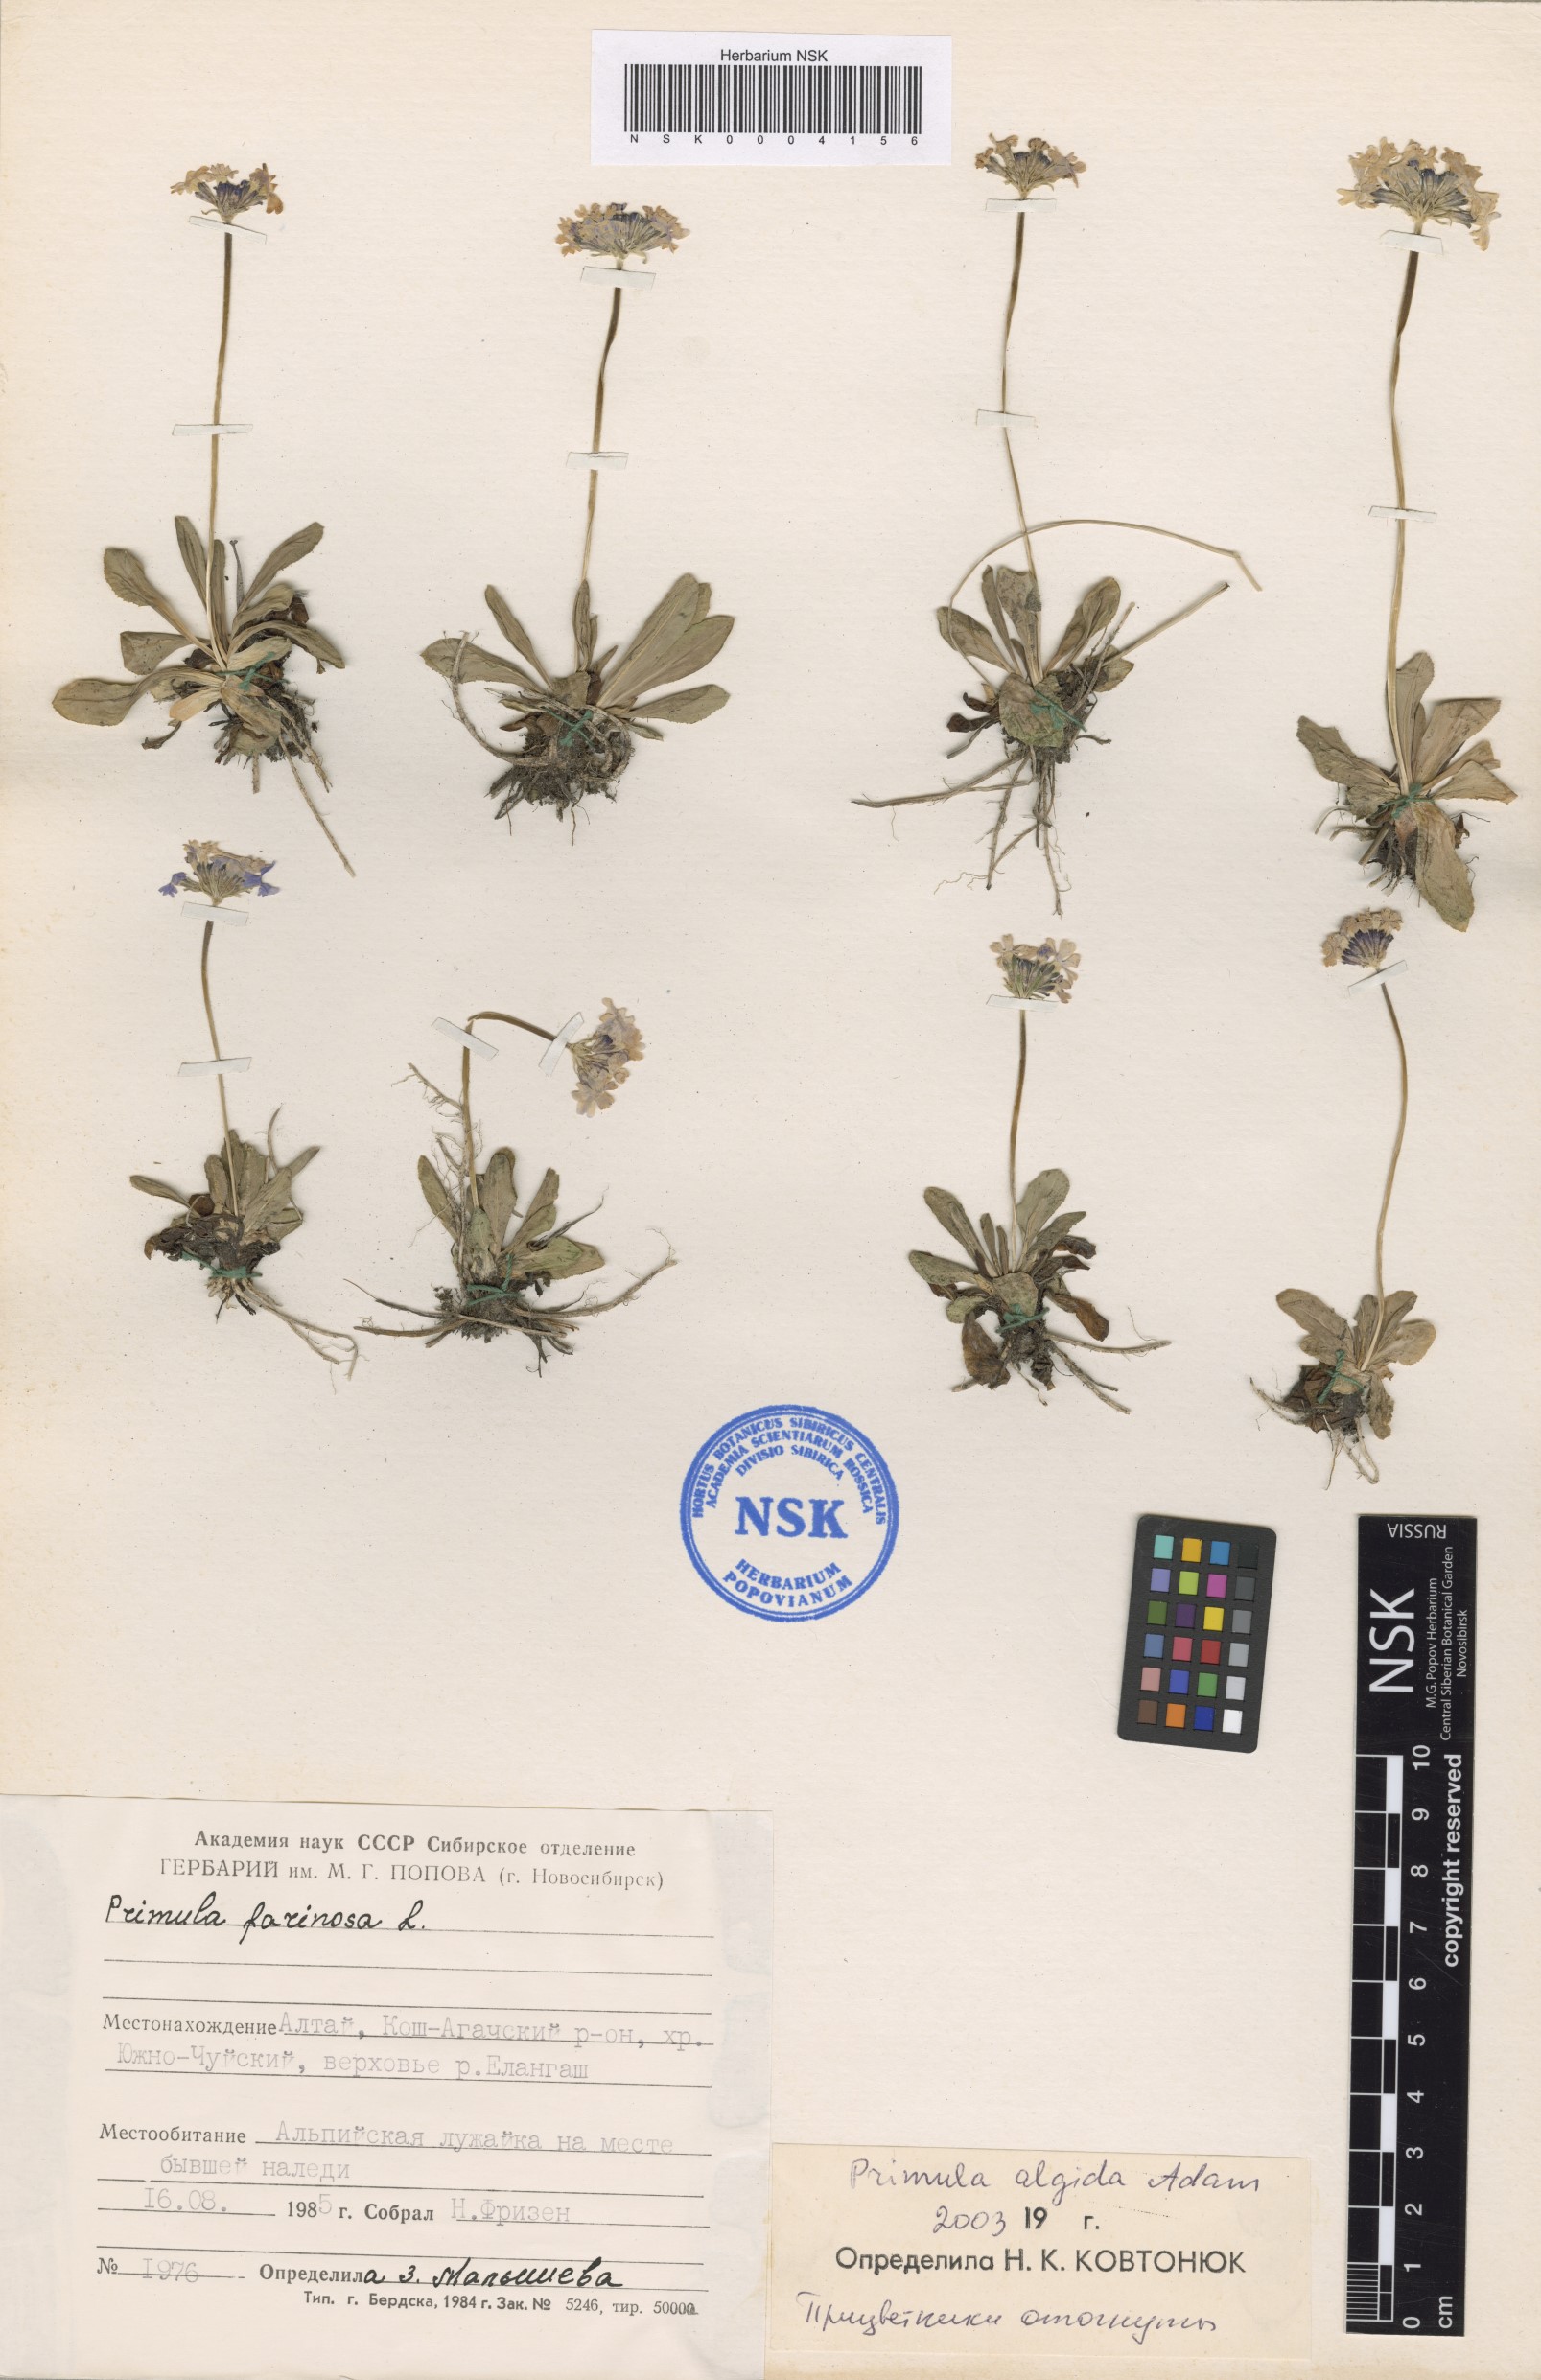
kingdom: Plantae
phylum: Tracheophyta
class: Magnoliopsida
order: Ericales
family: Primulaceae
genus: Primula
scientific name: Primula algida
